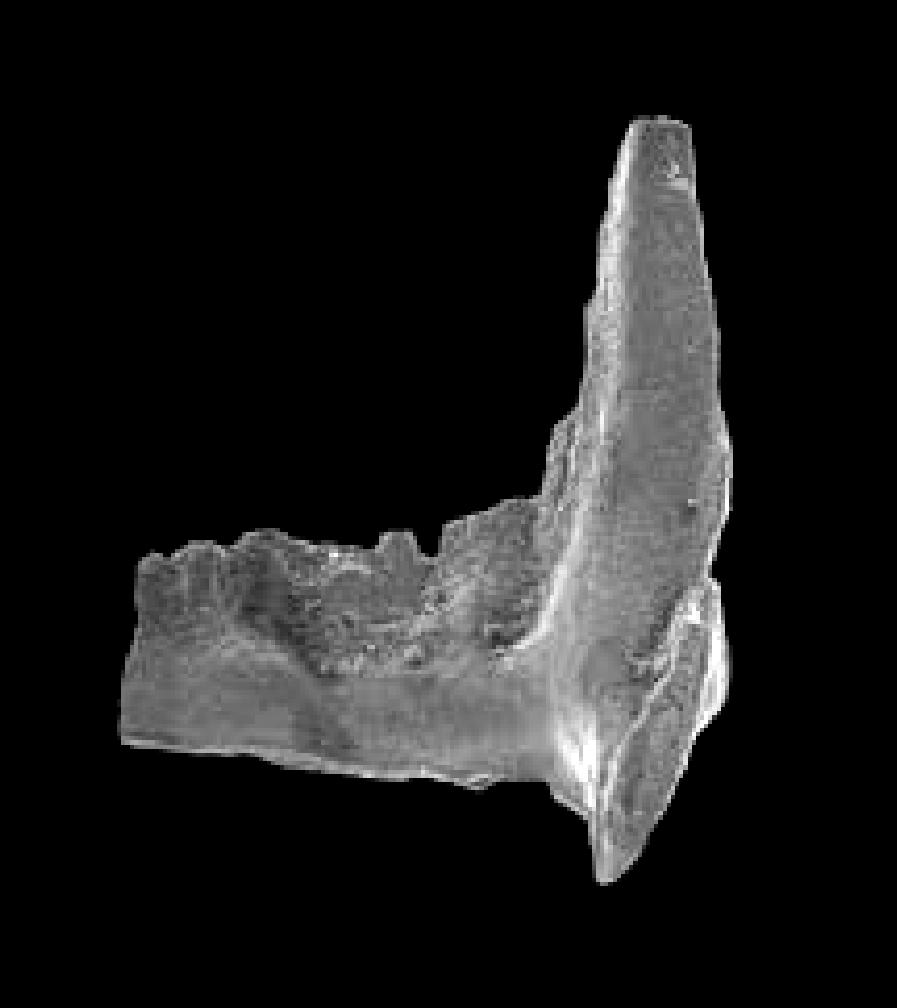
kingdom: Animalia
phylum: Chordata
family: Balognathidae
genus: Prioniodus
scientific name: Prioniodus
